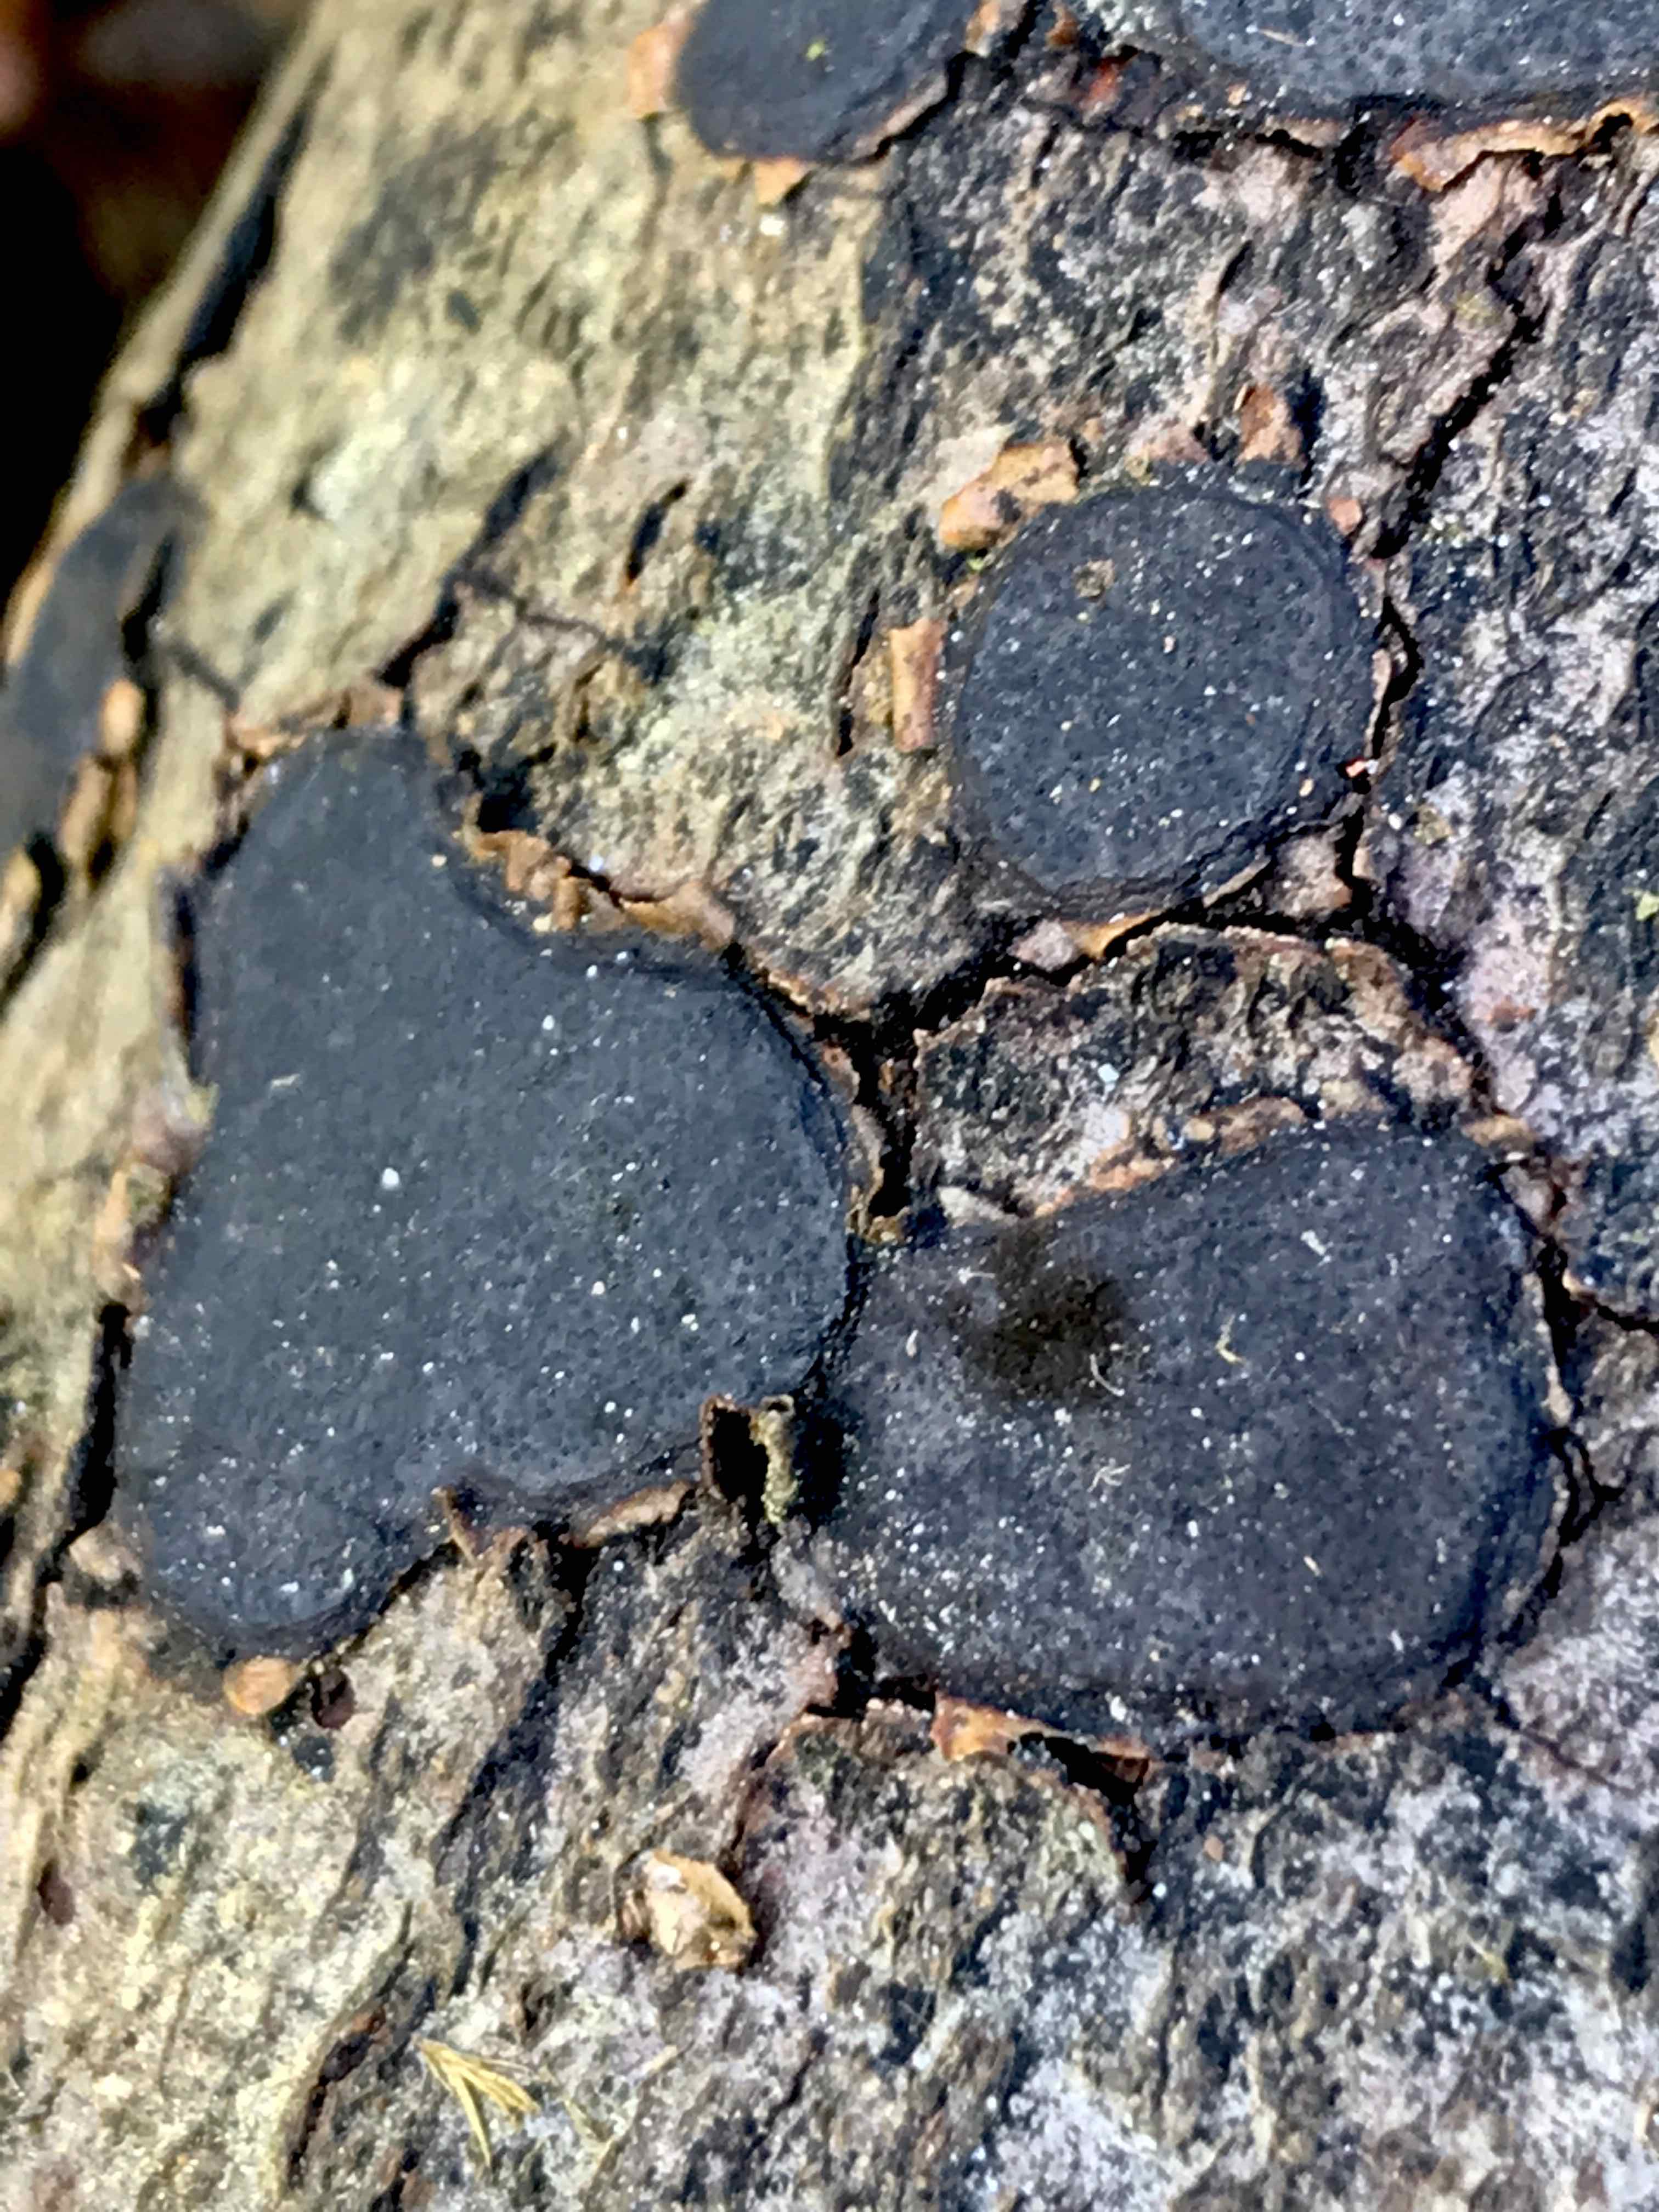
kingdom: Fungi
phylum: Ascomycota
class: Sordariomycetes
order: Xylariales
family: Graphostromataceae
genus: Biscogniauxia
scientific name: Biscogniauxia nummularia
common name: bøge-kulskive
